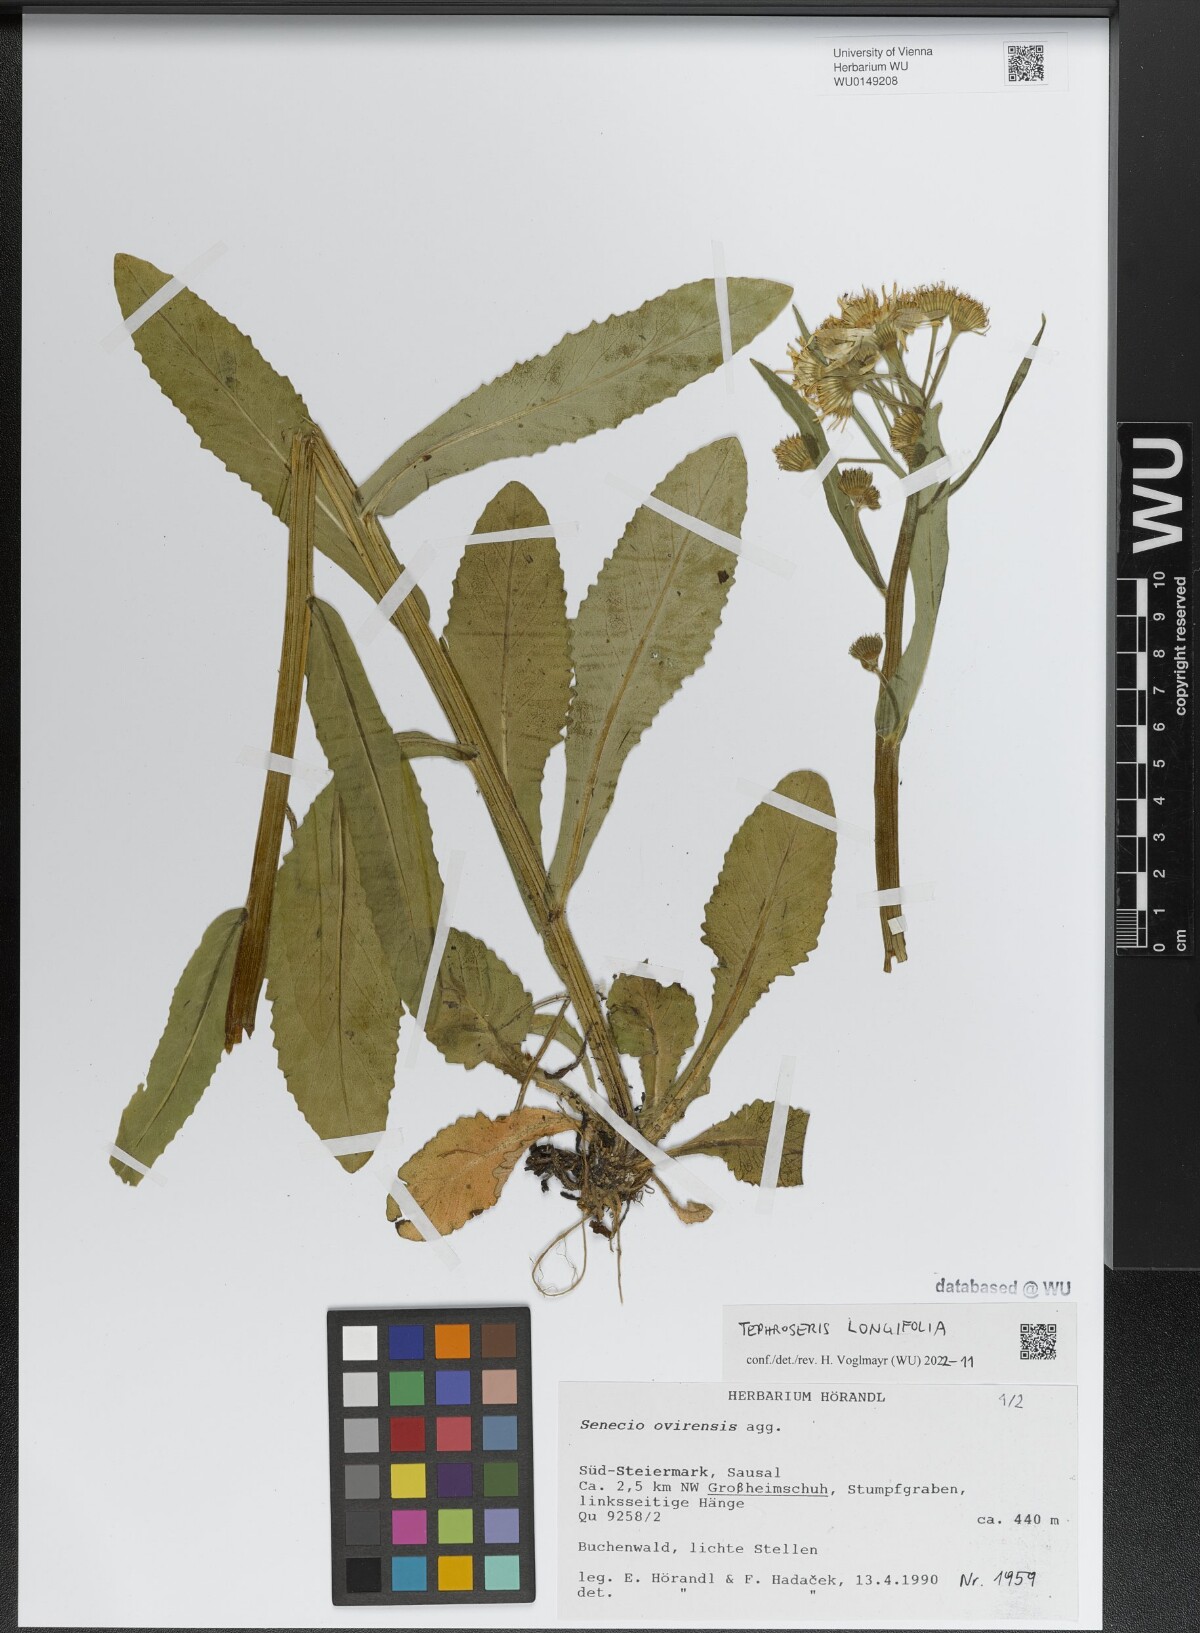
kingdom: Plantae
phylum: Tracheophyta
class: Magnoliopsida
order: Asterales
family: Asteraceae
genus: Tephroseris
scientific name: Tephroseris longifolia
